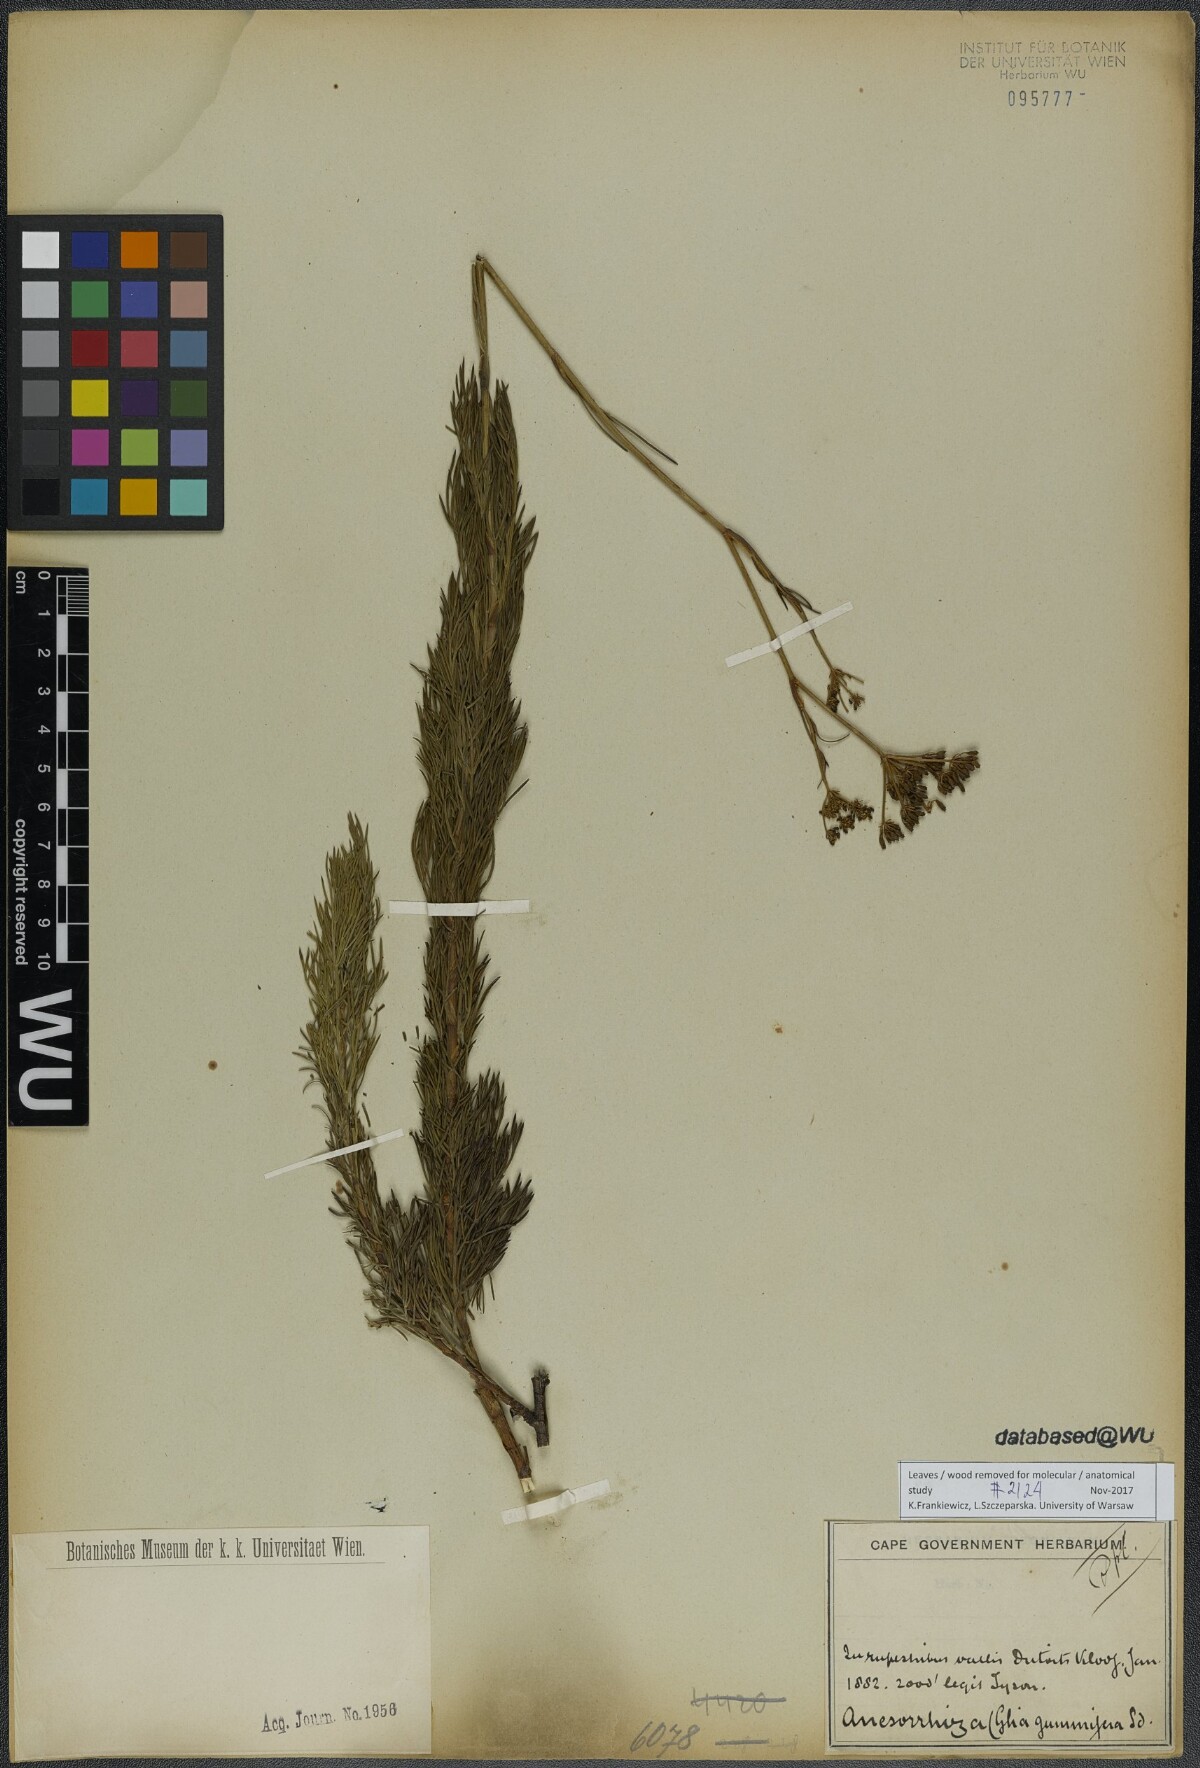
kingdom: Plantae
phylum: Tracheophyta
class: Magnoliopsida
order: Apiales
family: Apiaceae
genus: Notobubon
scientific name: Notobubon gummiferum
